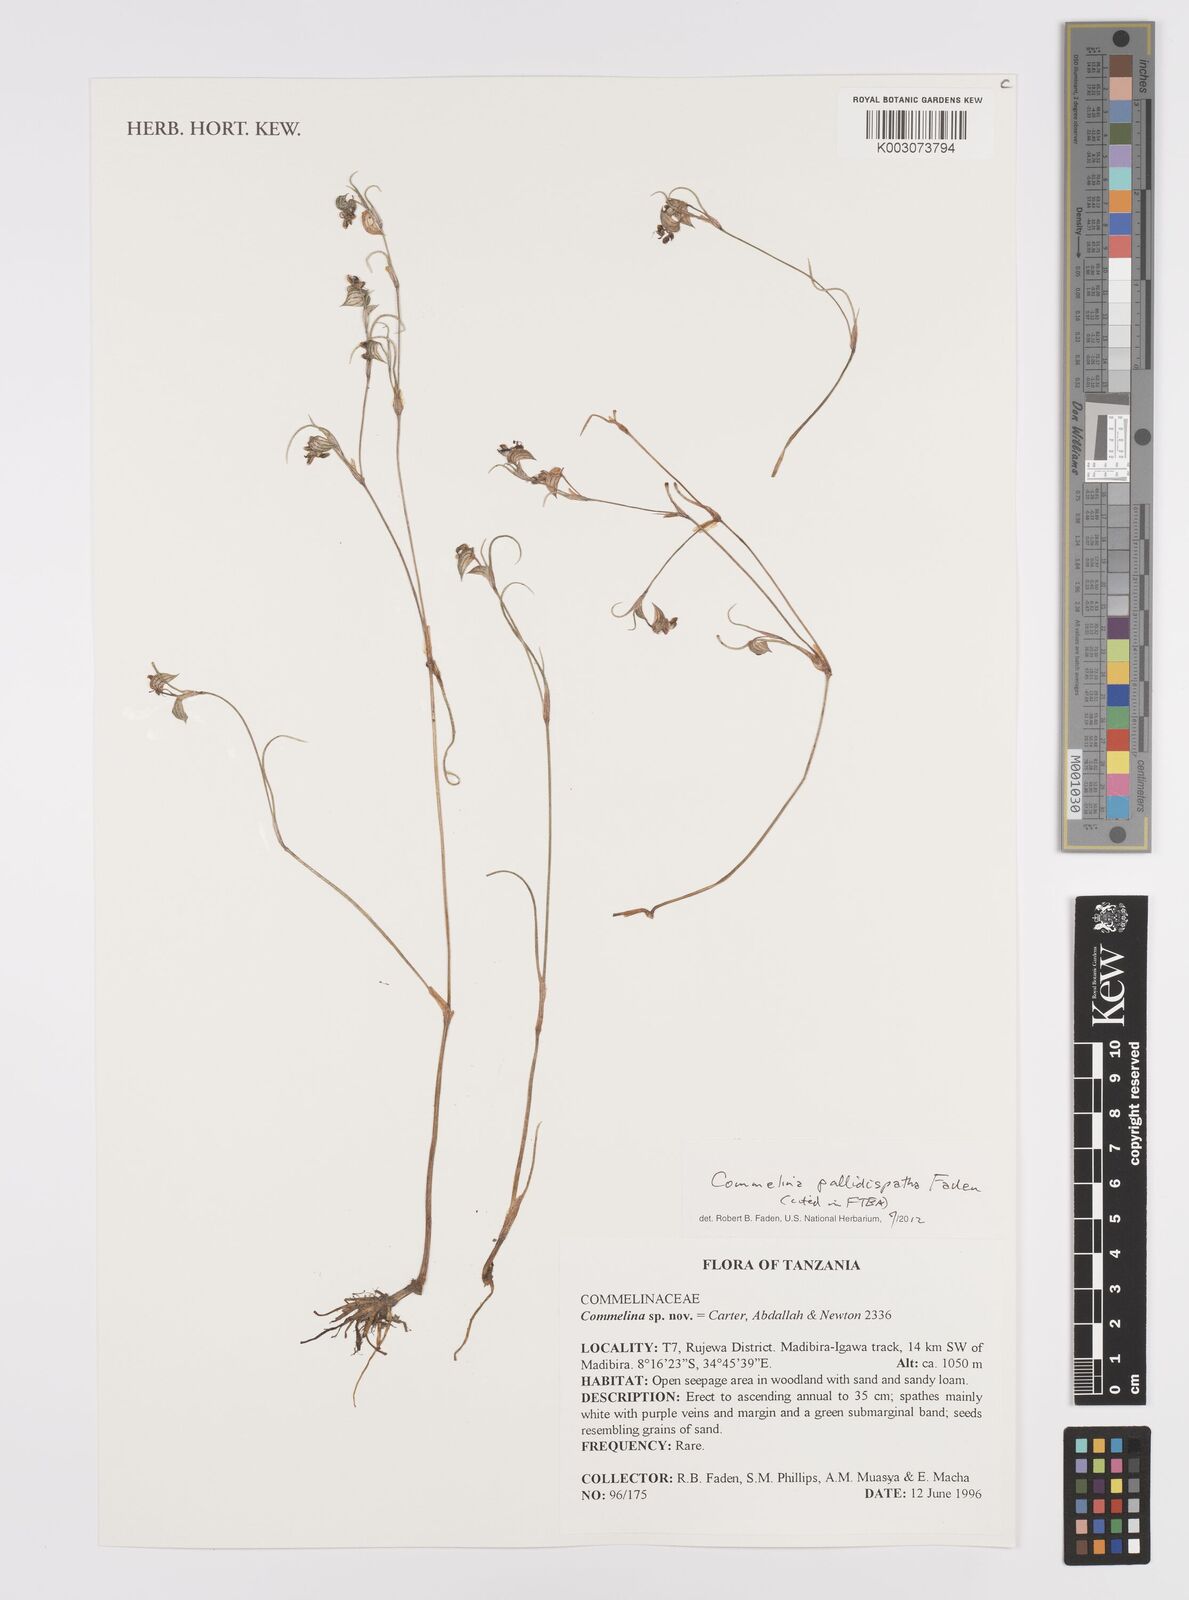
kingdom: Plantae
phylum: Tracheophyta
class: Liliopsida
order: Commelinales
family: Commelinaceae
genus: Commelina
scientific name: Commelina pallidispatha
